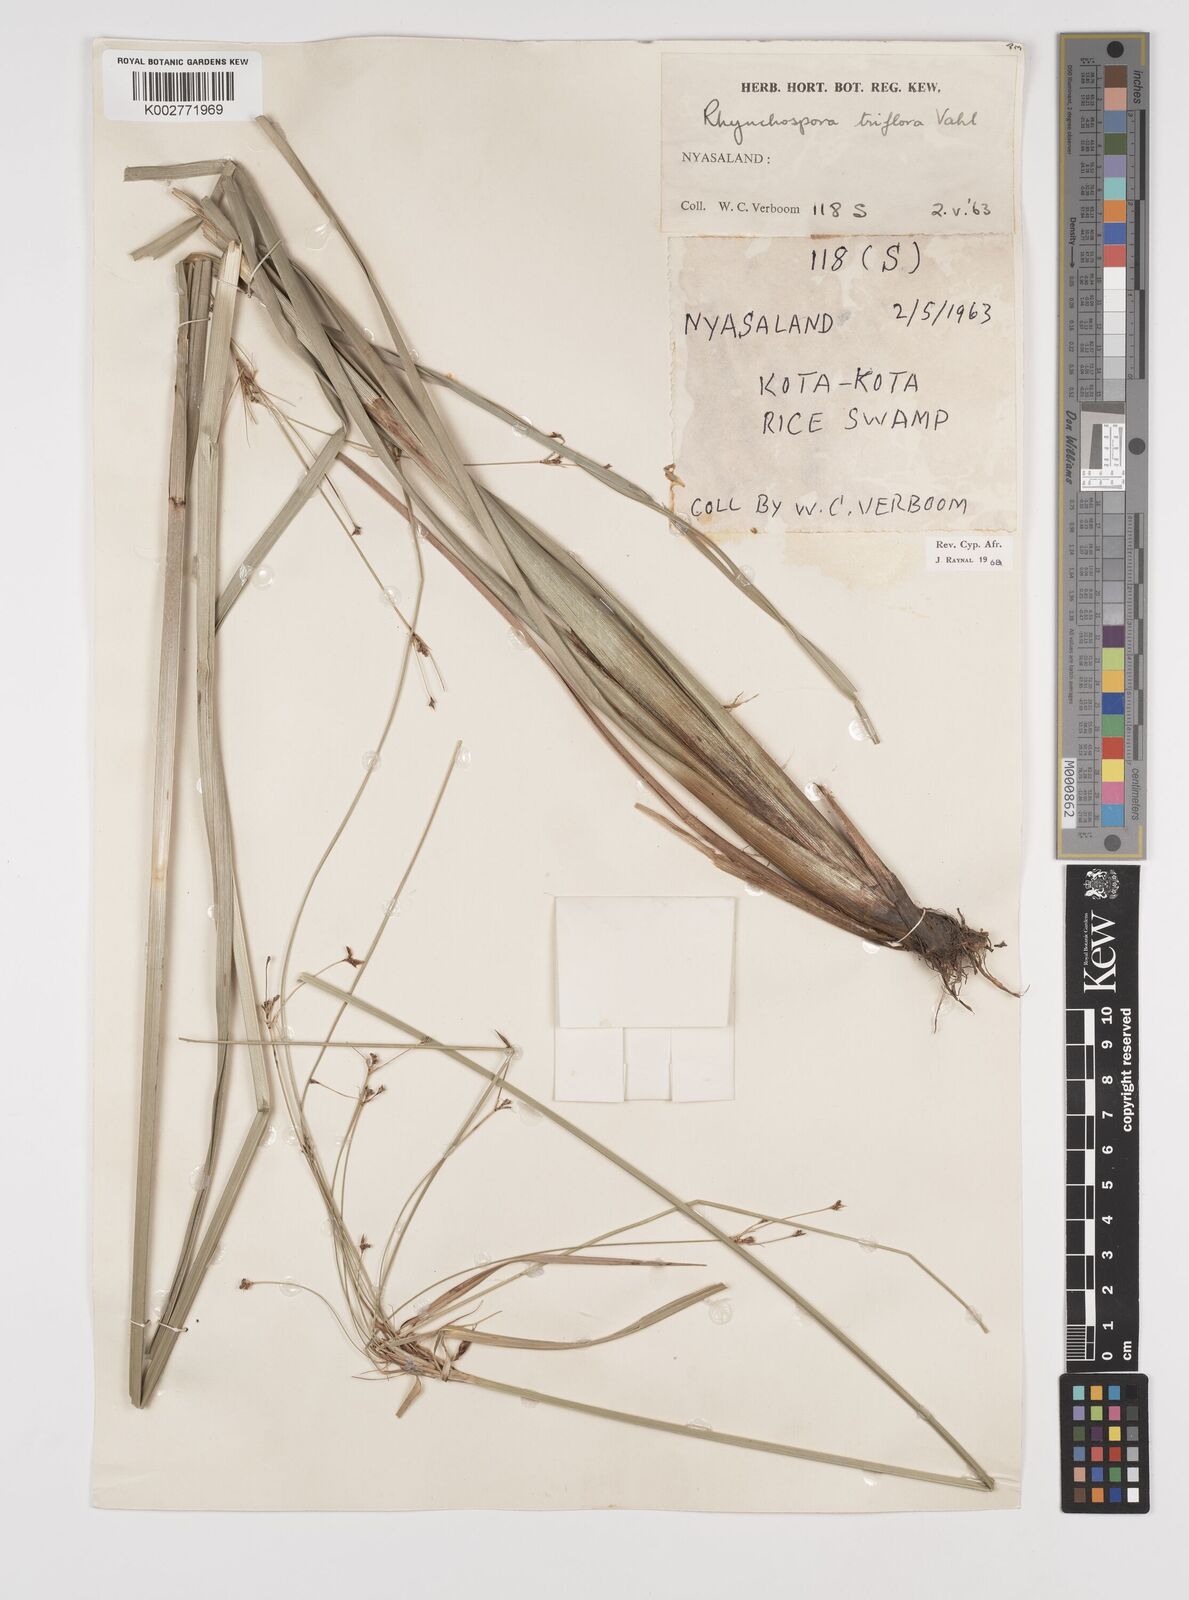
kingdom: Plantae
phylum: Tracheophyta
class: Liliopsida
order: Poales
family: Cyperaceae
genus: Rhynchospora
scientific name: Rhynchospora triflora
